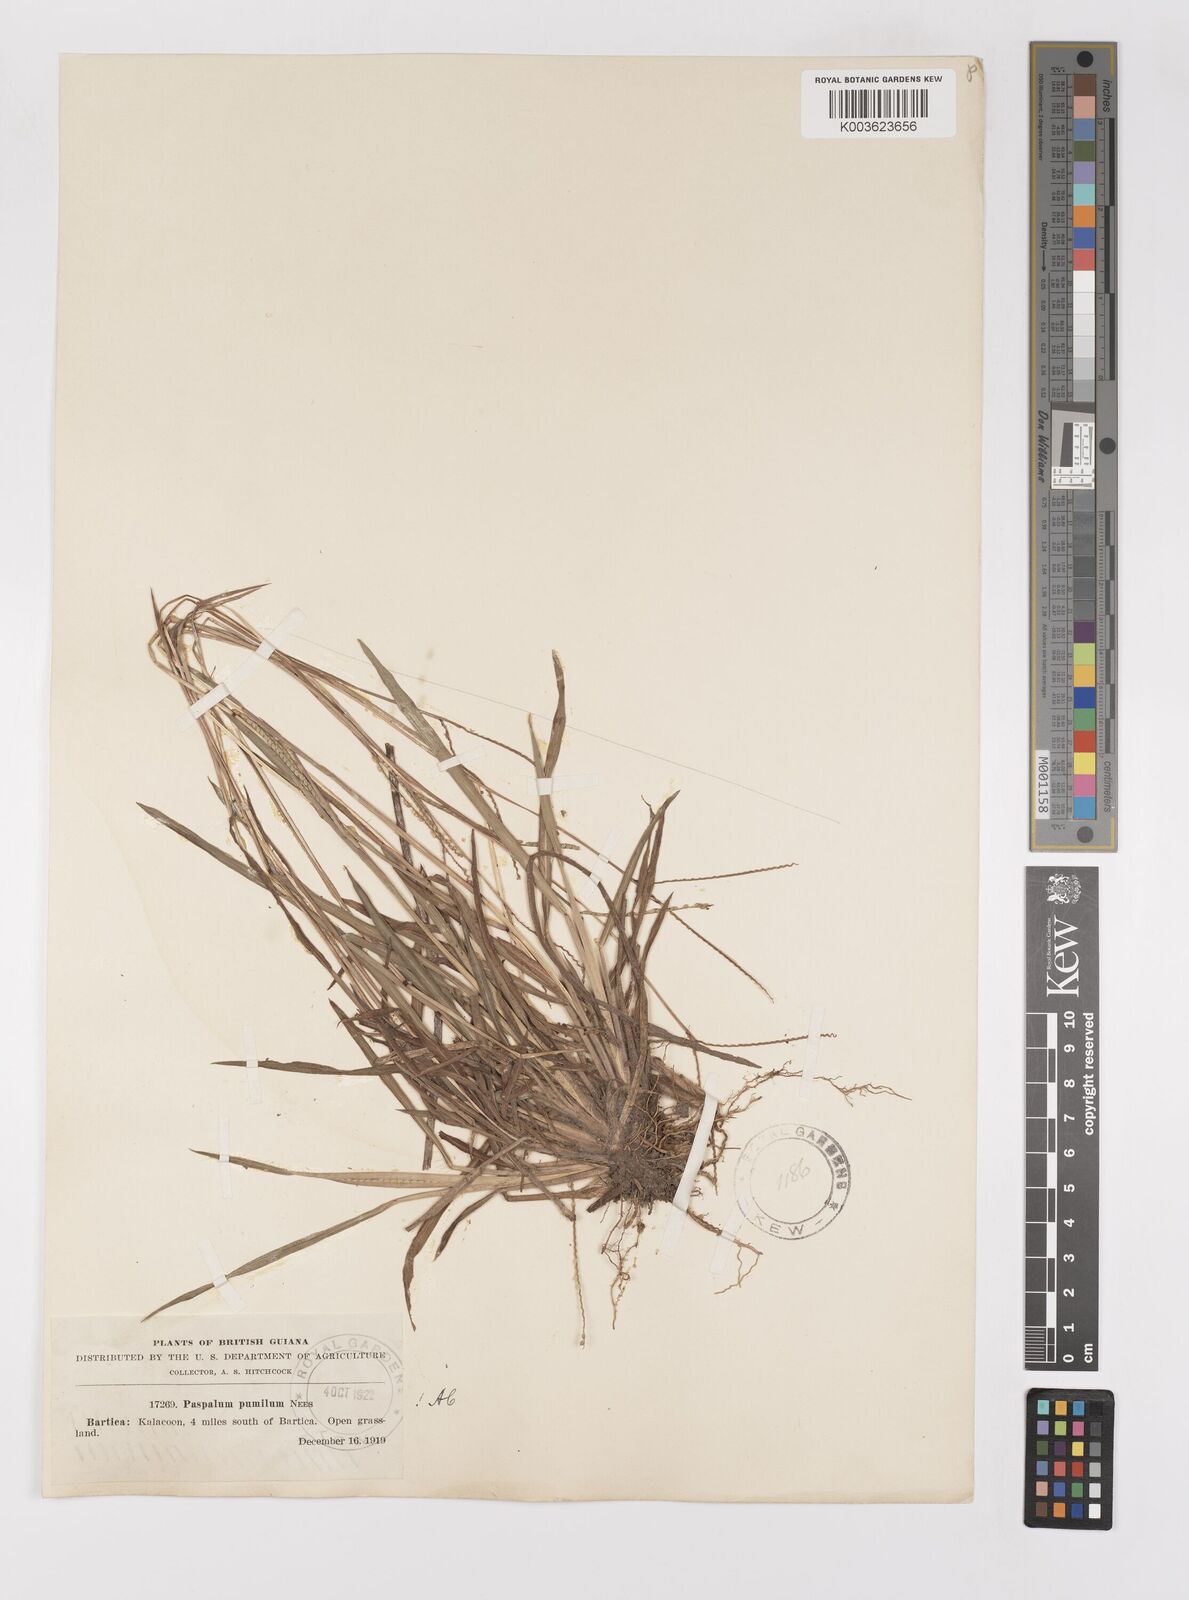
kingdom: Plantae
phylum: Tracheophyta
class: Liliopsida
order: Poales
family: Poaceae
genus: Paspalum
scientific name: Paspalum pumilum
